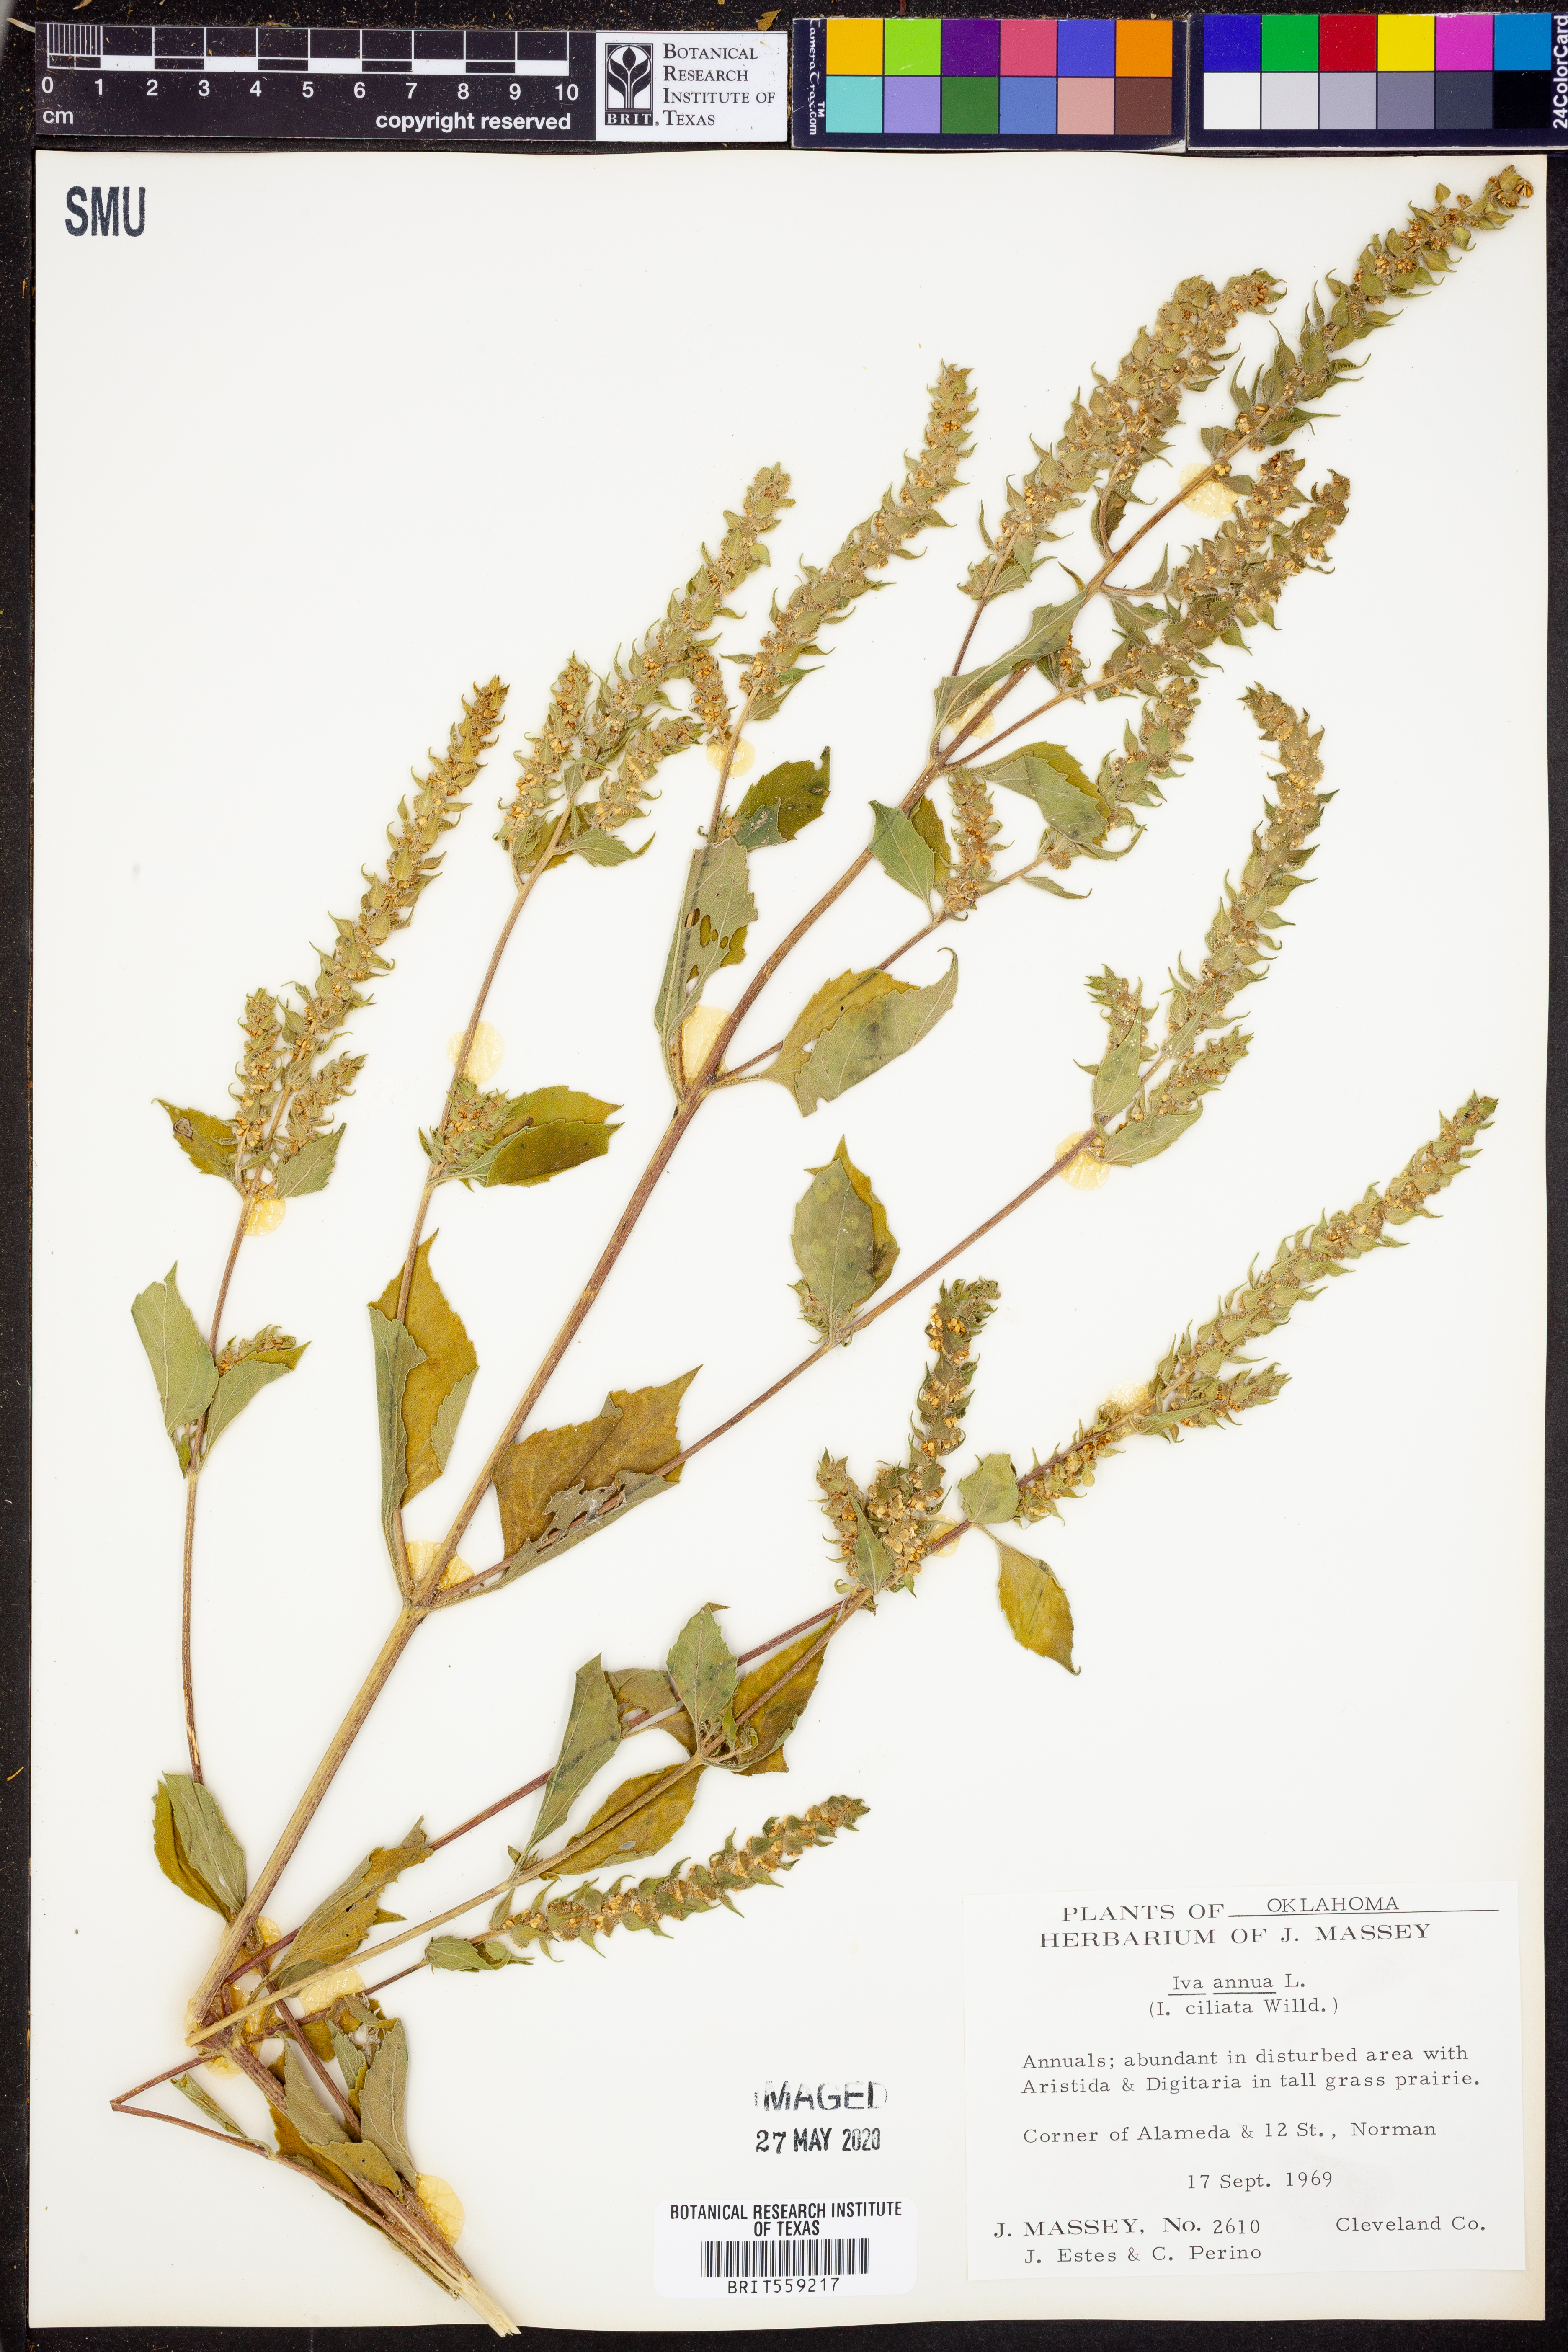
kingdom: Plantae
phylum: Tracheophyta
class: Magnoliopsida
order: Asterales
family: Asteraceae
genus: Iva
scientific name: Iva annua
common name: Marsh-elder
